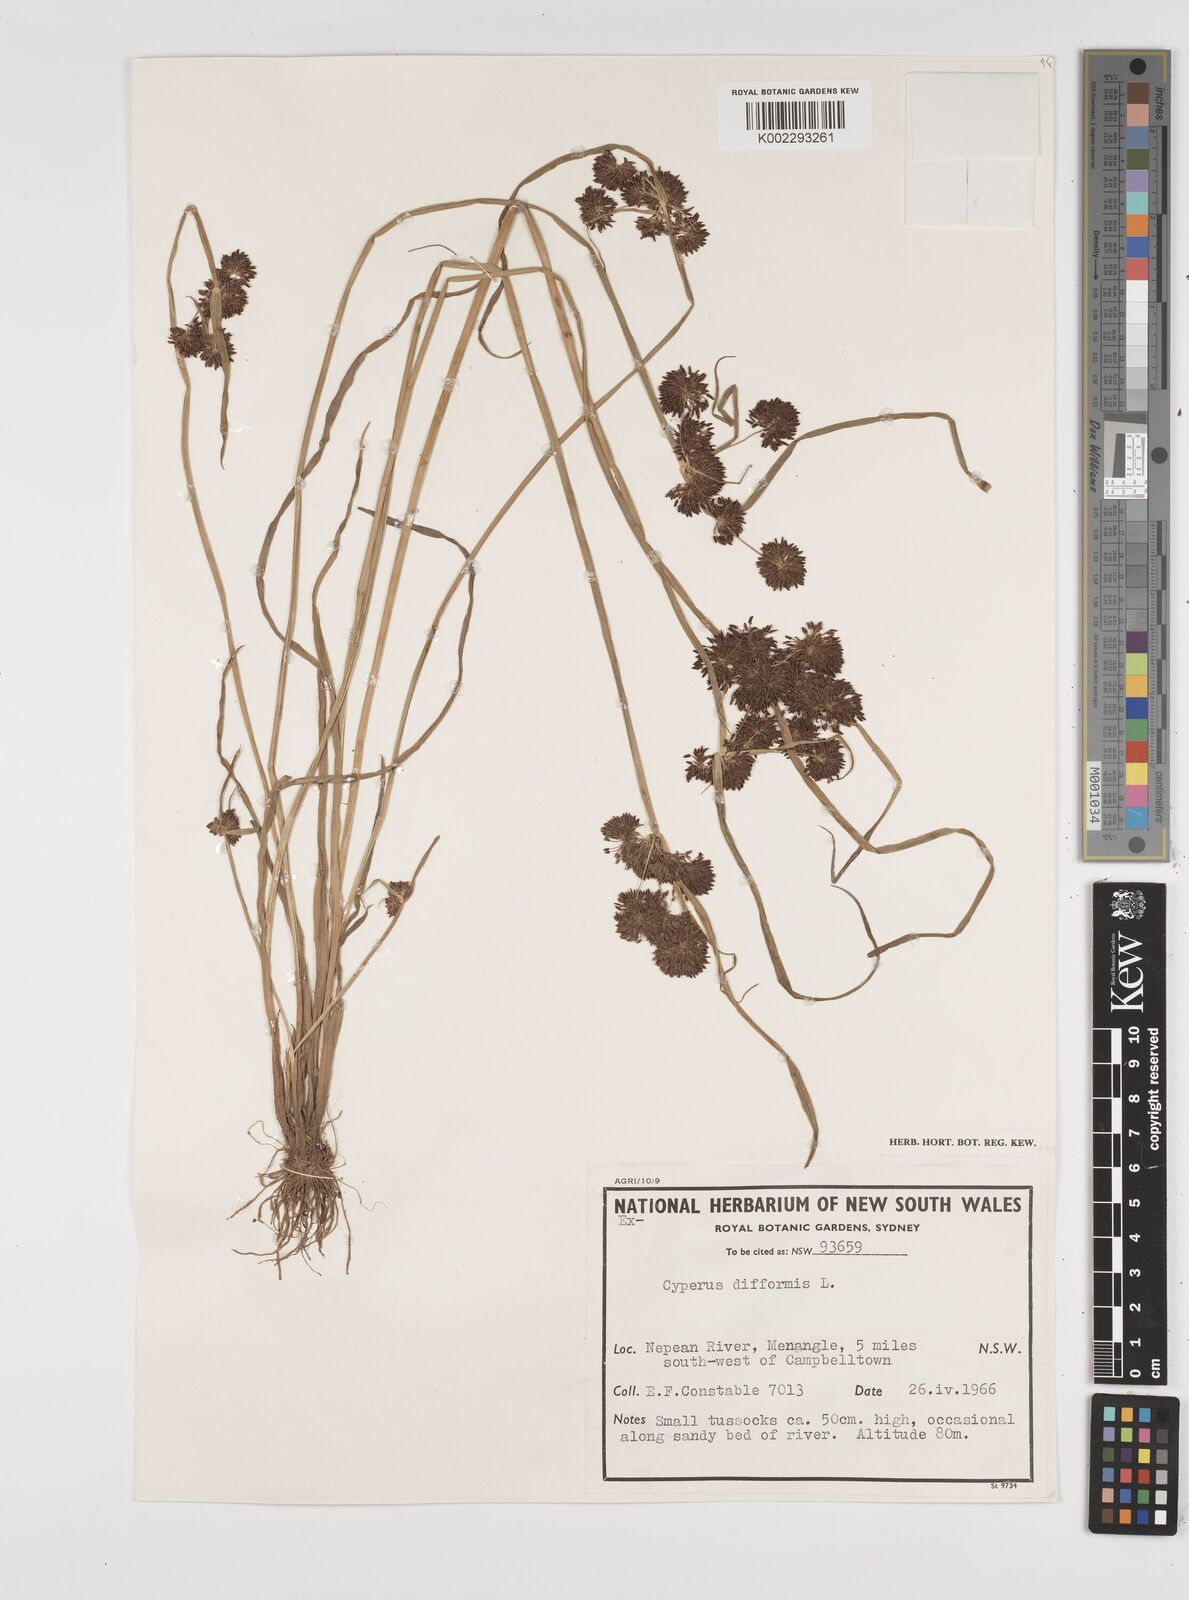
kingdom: Plantae
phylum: Tracheophyta
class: Liliopsida
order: Poales
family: Cyperaceae
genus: Cyperus
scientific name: Cyperus difformis
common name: Variable flatsedge
